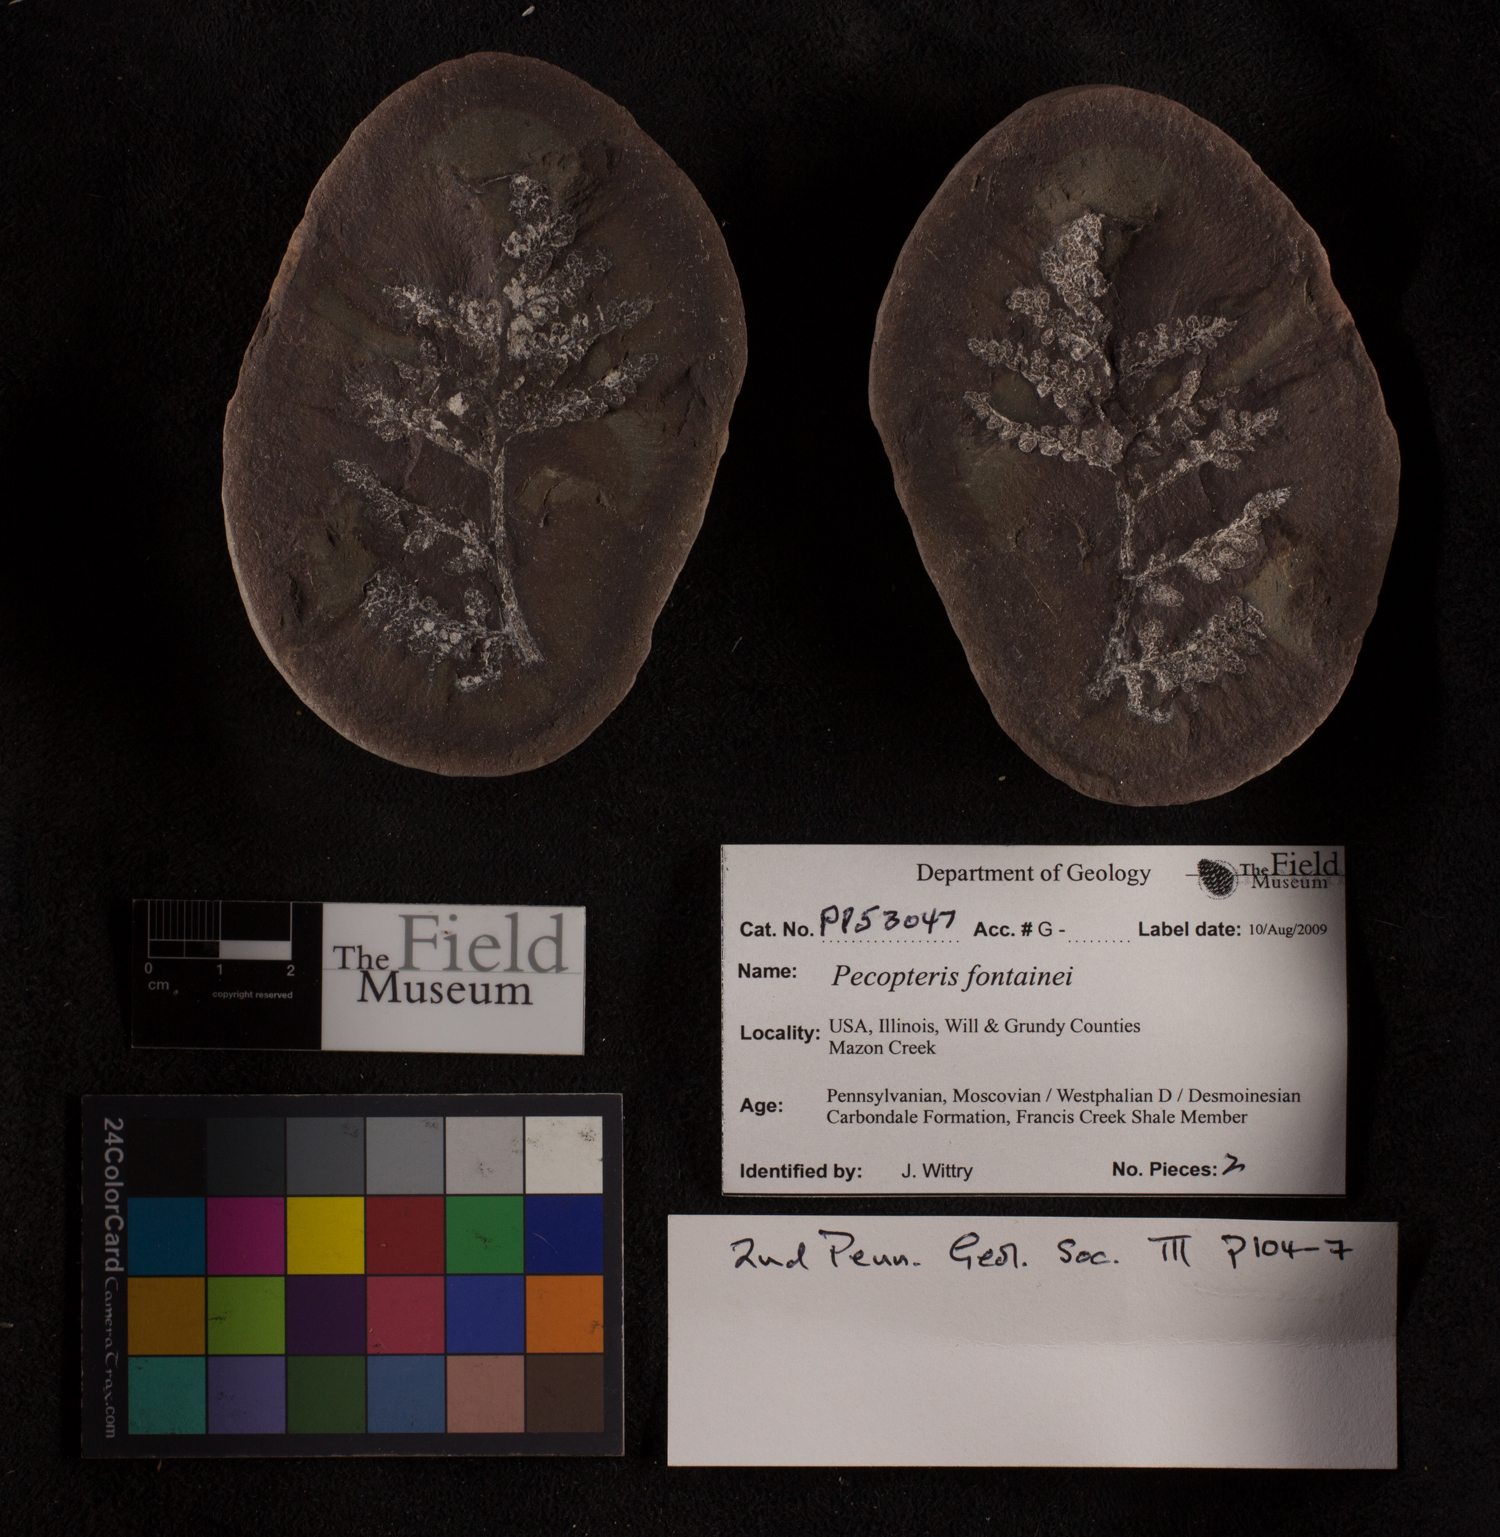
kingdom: Plantae
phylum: Tracheophyta
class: Polypodiopsida
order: Marattiales
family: Asterothecaceae
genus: Pecopteris
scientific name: Pecopteris
